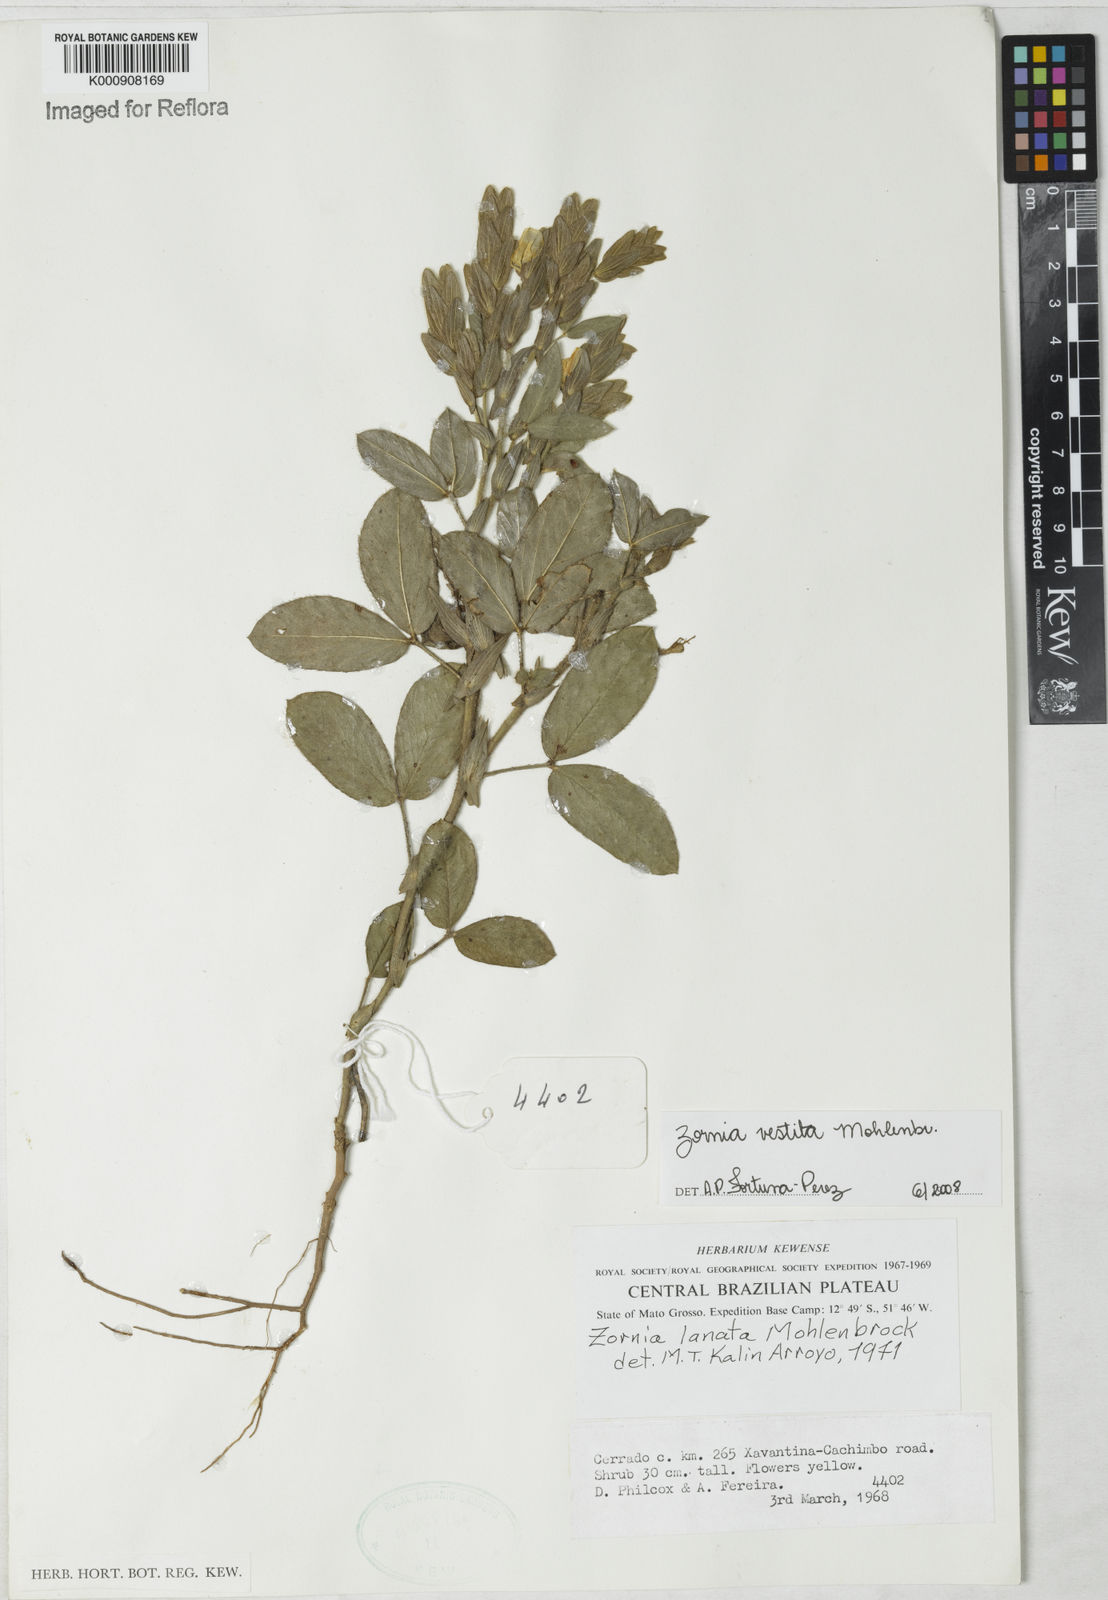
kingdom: Plantae
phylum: Tracheophyta
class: Magnoliopsida
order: Fabales
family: Fabaceae
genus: Zornia
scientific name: Zornia villosa
